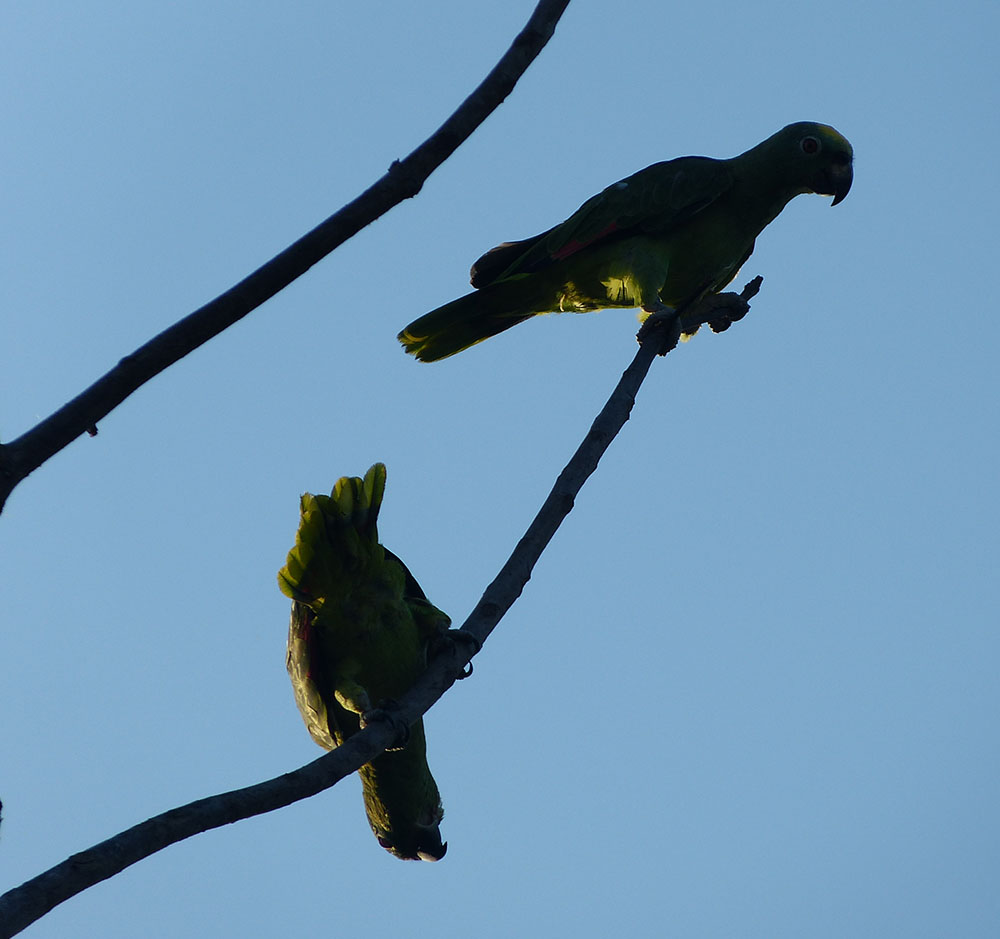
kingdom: Animalia
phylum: Chordata
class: Aves
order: Psittaciformes
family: Psittacidae
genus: Amazona
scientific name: Amazona ochrocephala
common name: Yellow-crowned amazon
